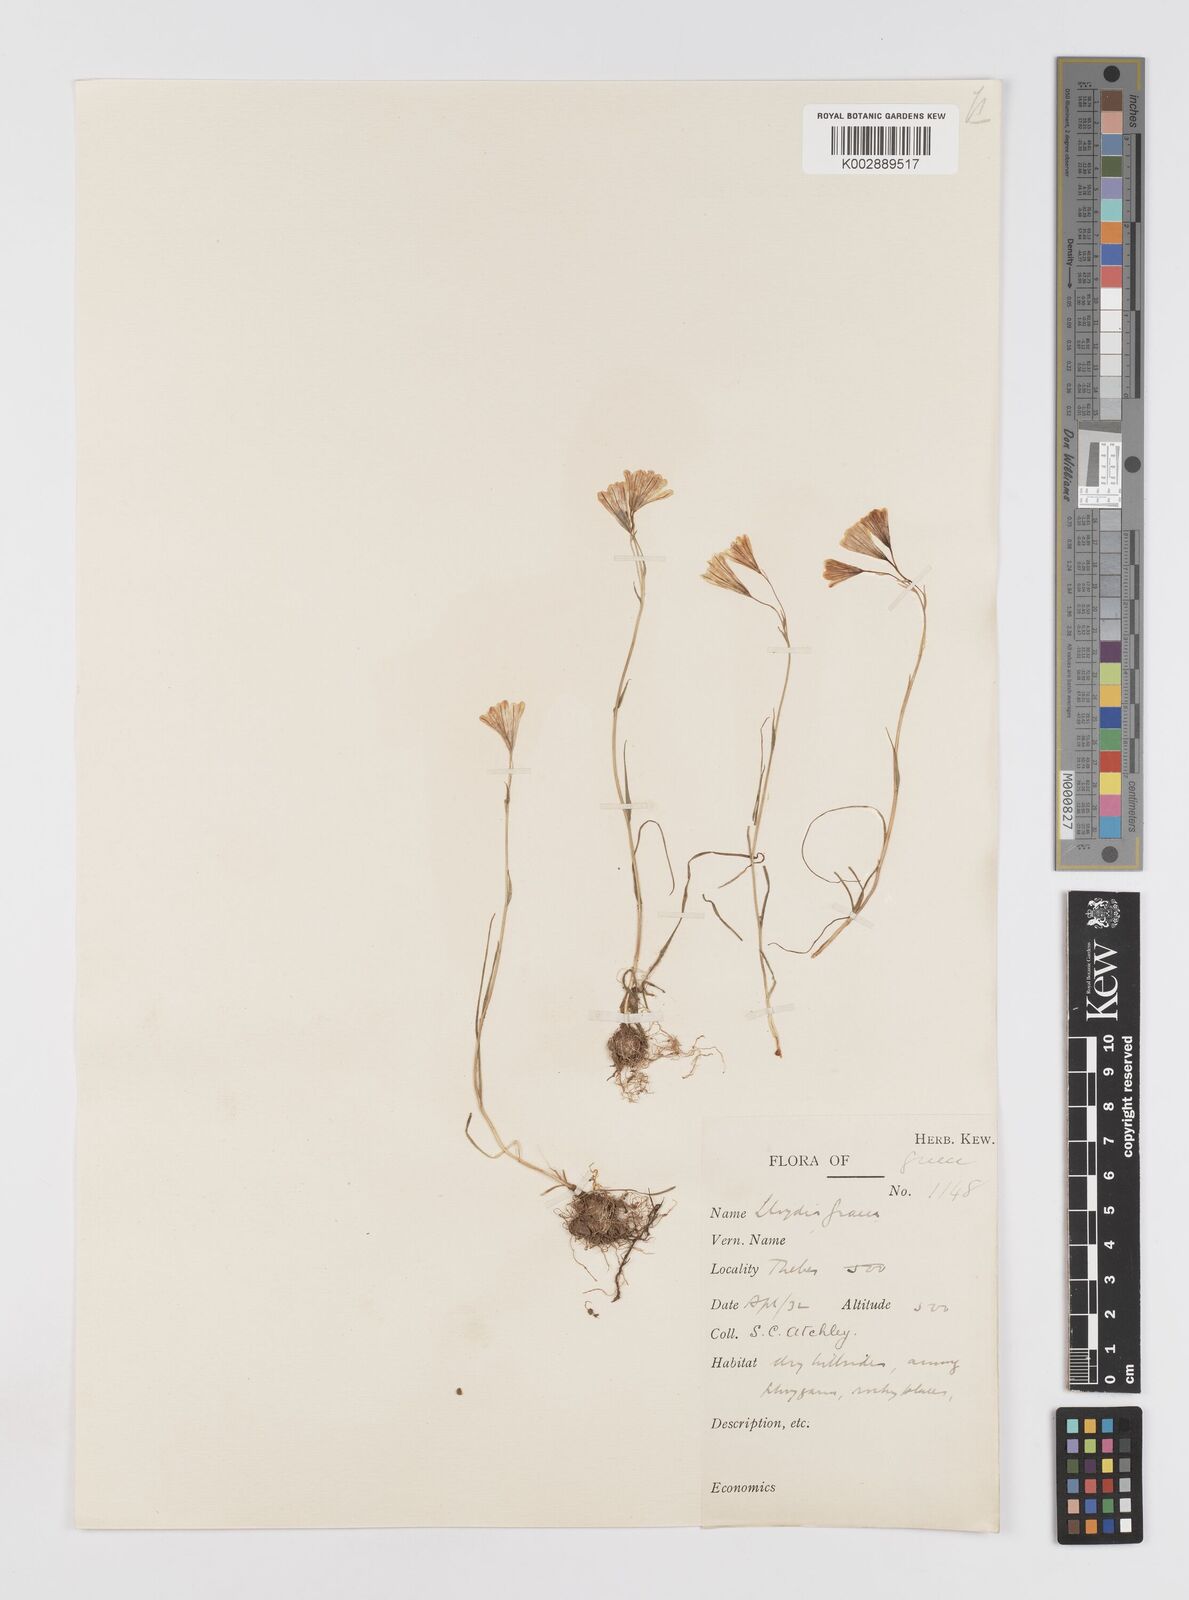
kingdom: Plantae
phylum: Tracheophyta
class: Liliopsida
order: Liliales
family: Liliaceae
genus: Gagea
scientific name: Gagea graeca
